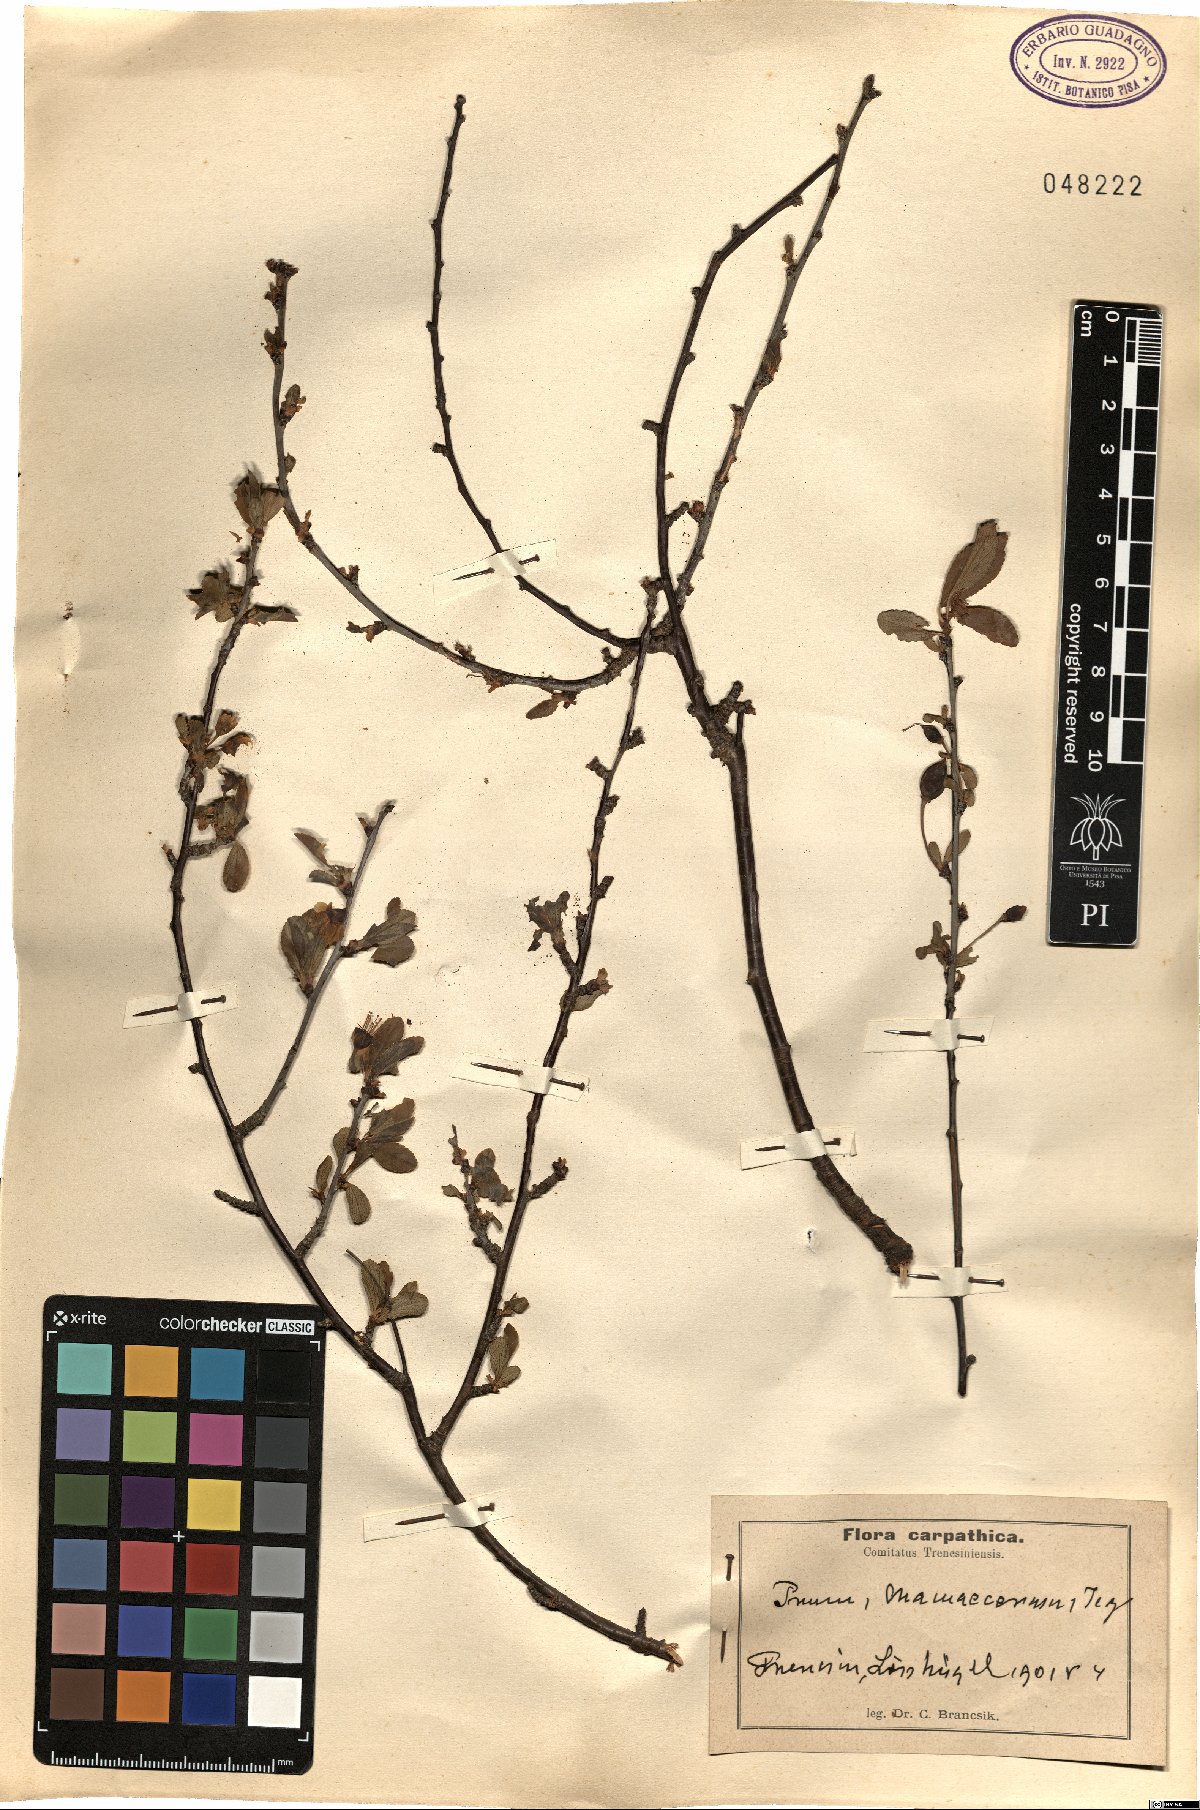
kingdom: Plantae
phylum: Tracheophyta
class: Magnoliopsida
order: Rosales
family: Rosaceae
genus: Prunus
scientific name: Prunus fruticosa
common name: European dwarf cherry
